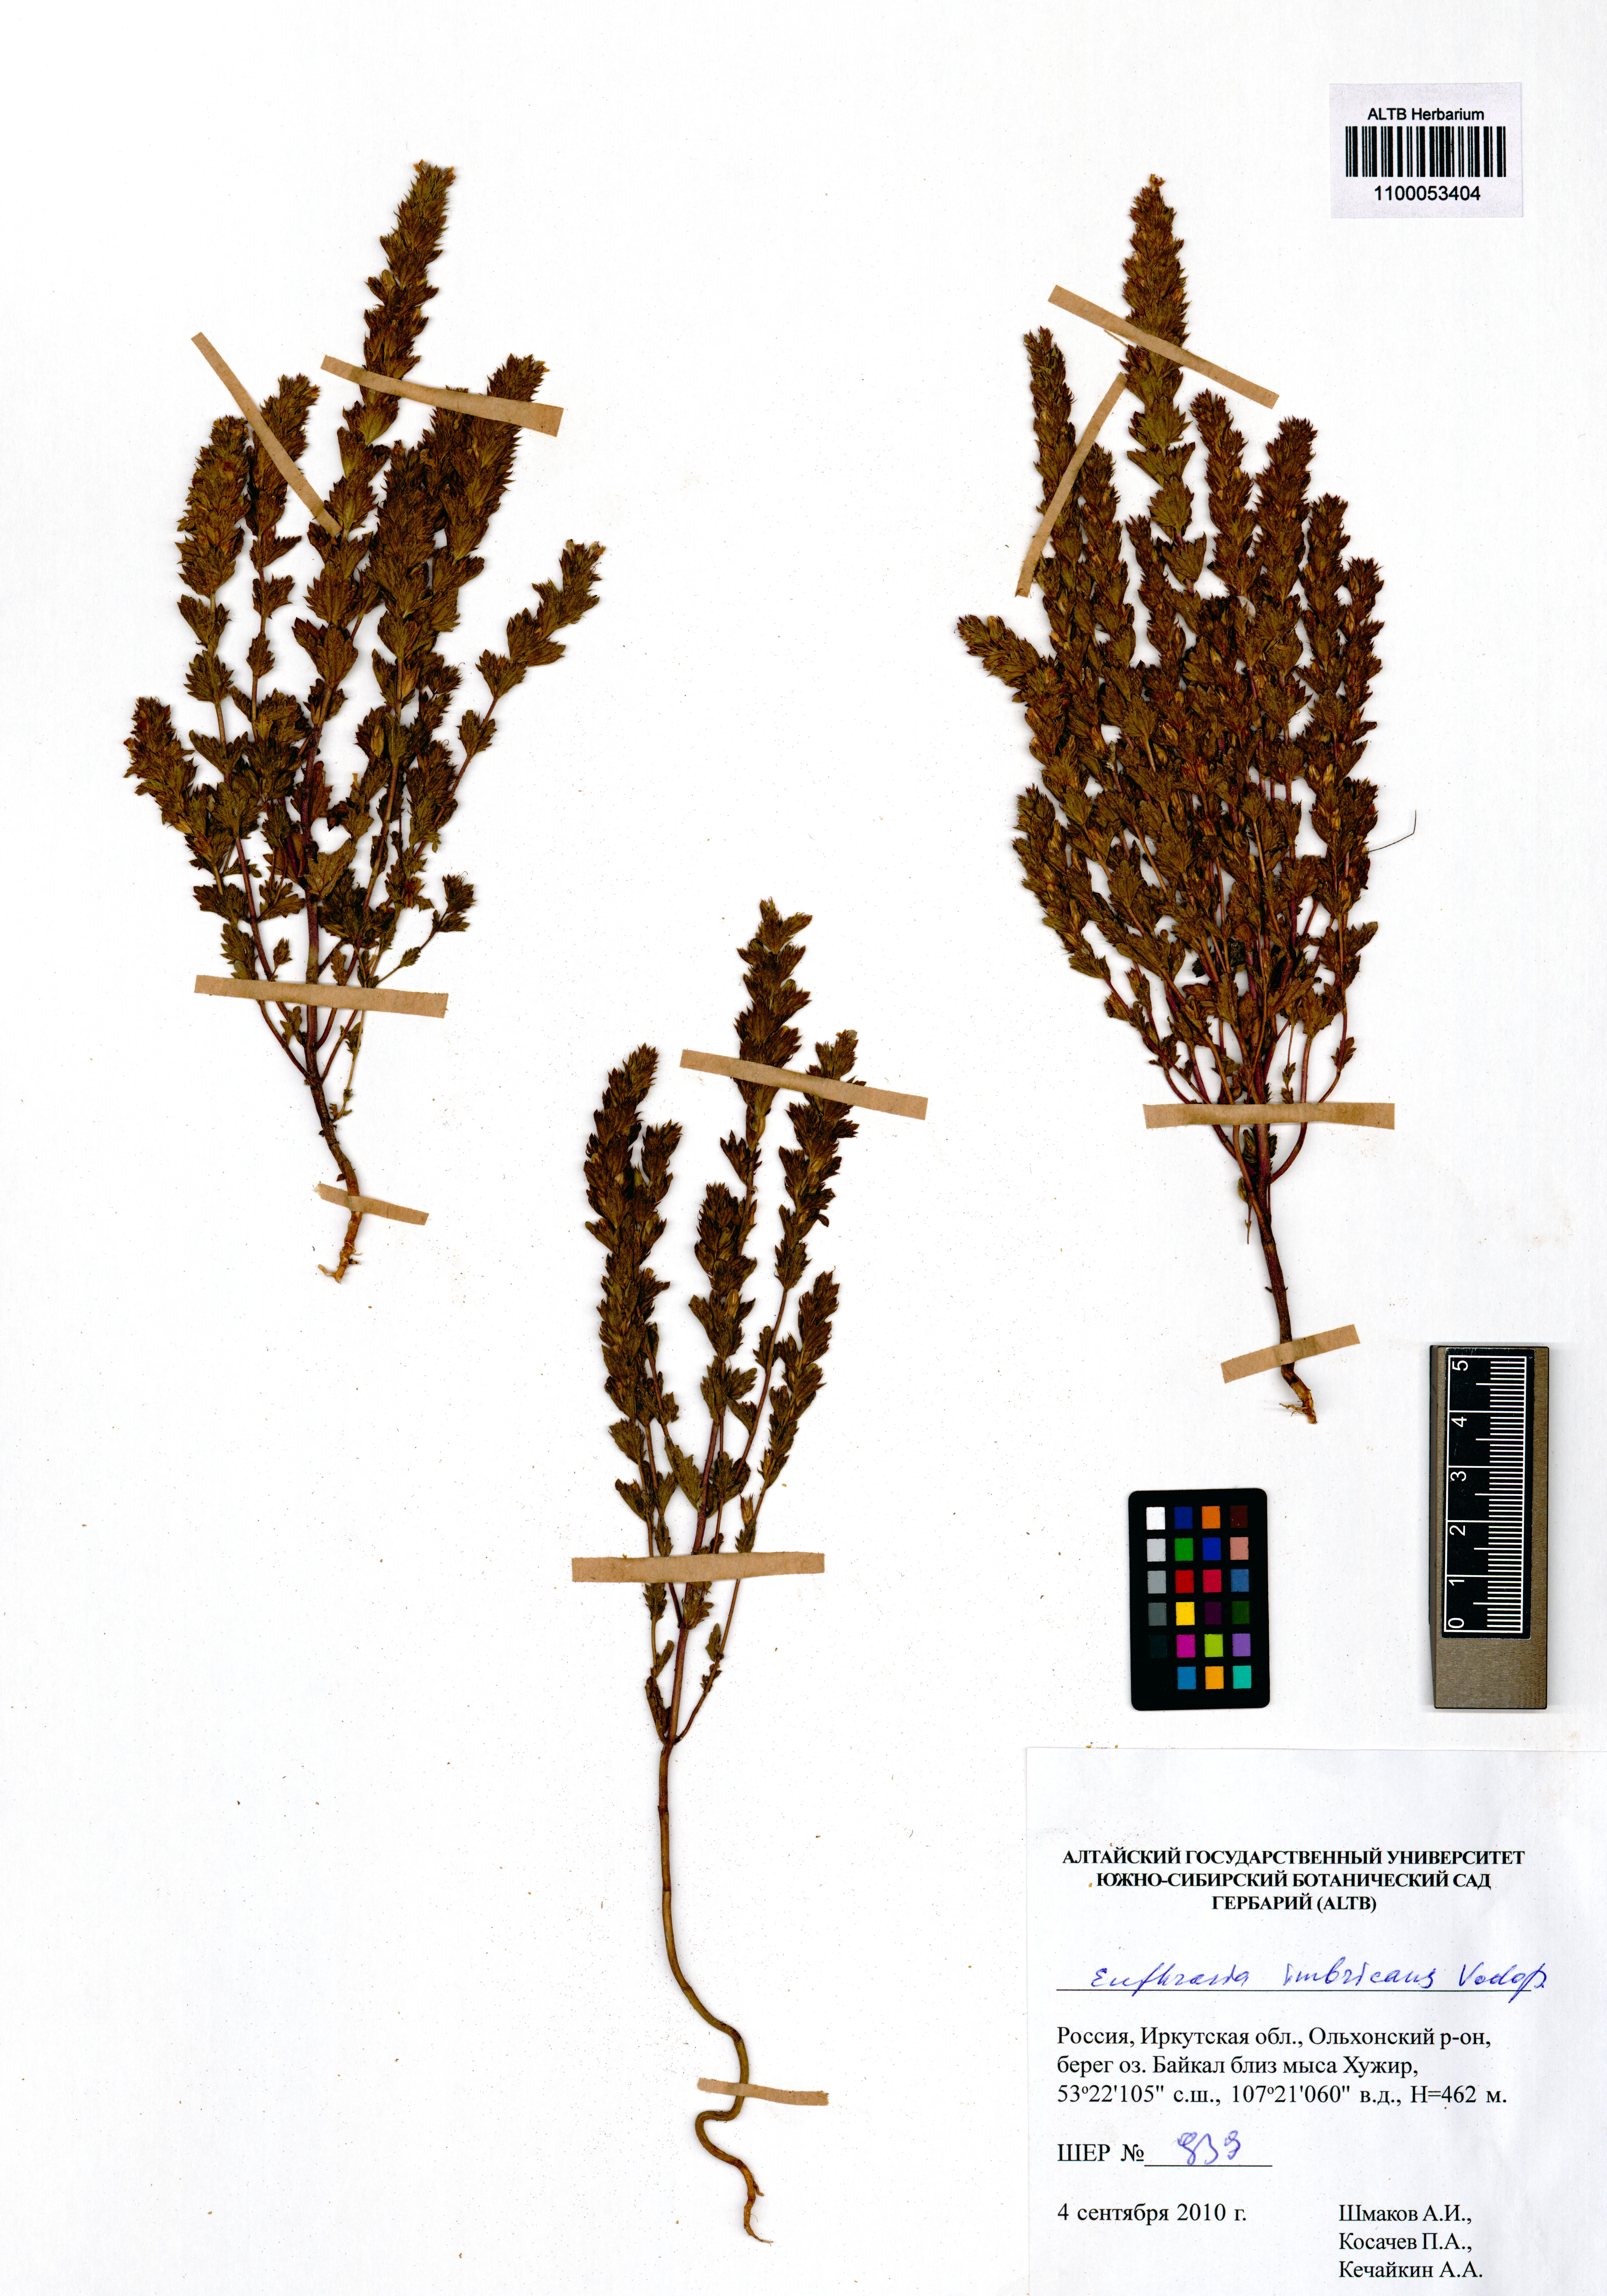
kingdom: Plantae
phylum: Tracheophyta
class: Magnoliopsida
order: Lamiales
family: Orobanchaceae
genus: Euphrasia
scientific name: Euphrasia pectinata
